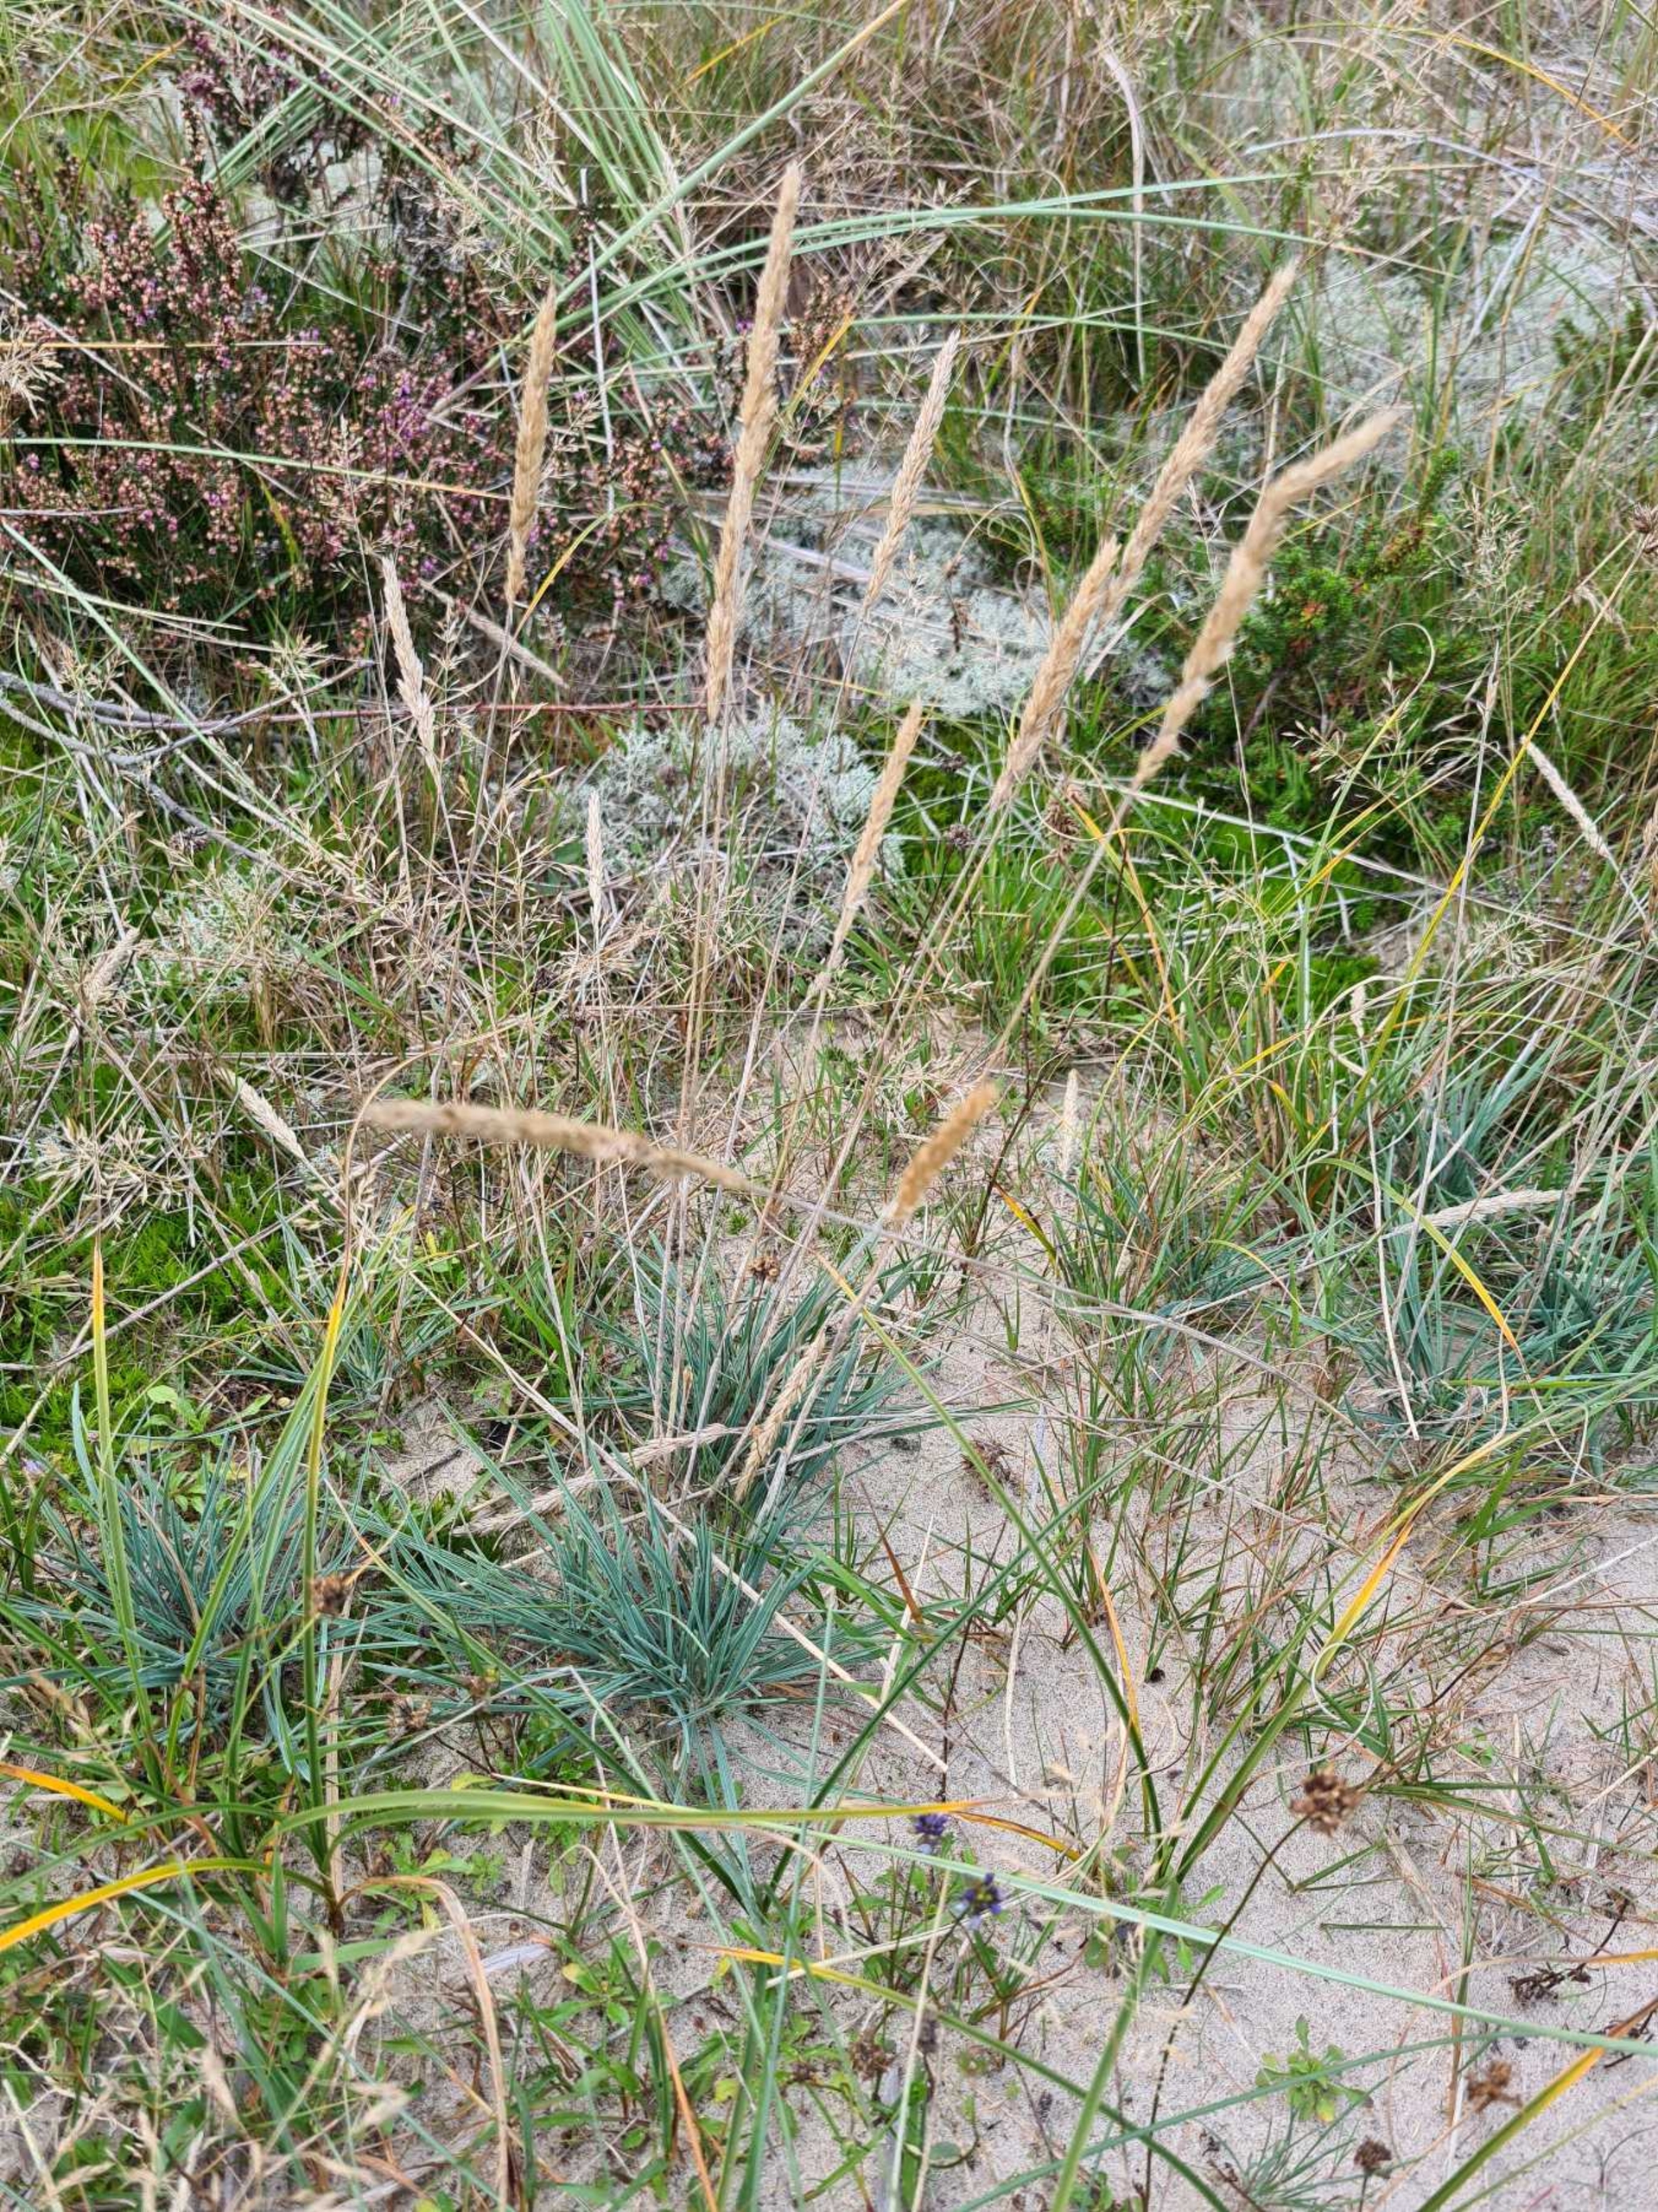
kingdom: Plantae
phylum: Tracheophyta
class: Liliopsida
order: Poales
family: Poaceae
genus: Koeleria
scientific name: Koeleria glauca
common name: Klit-kambunke
